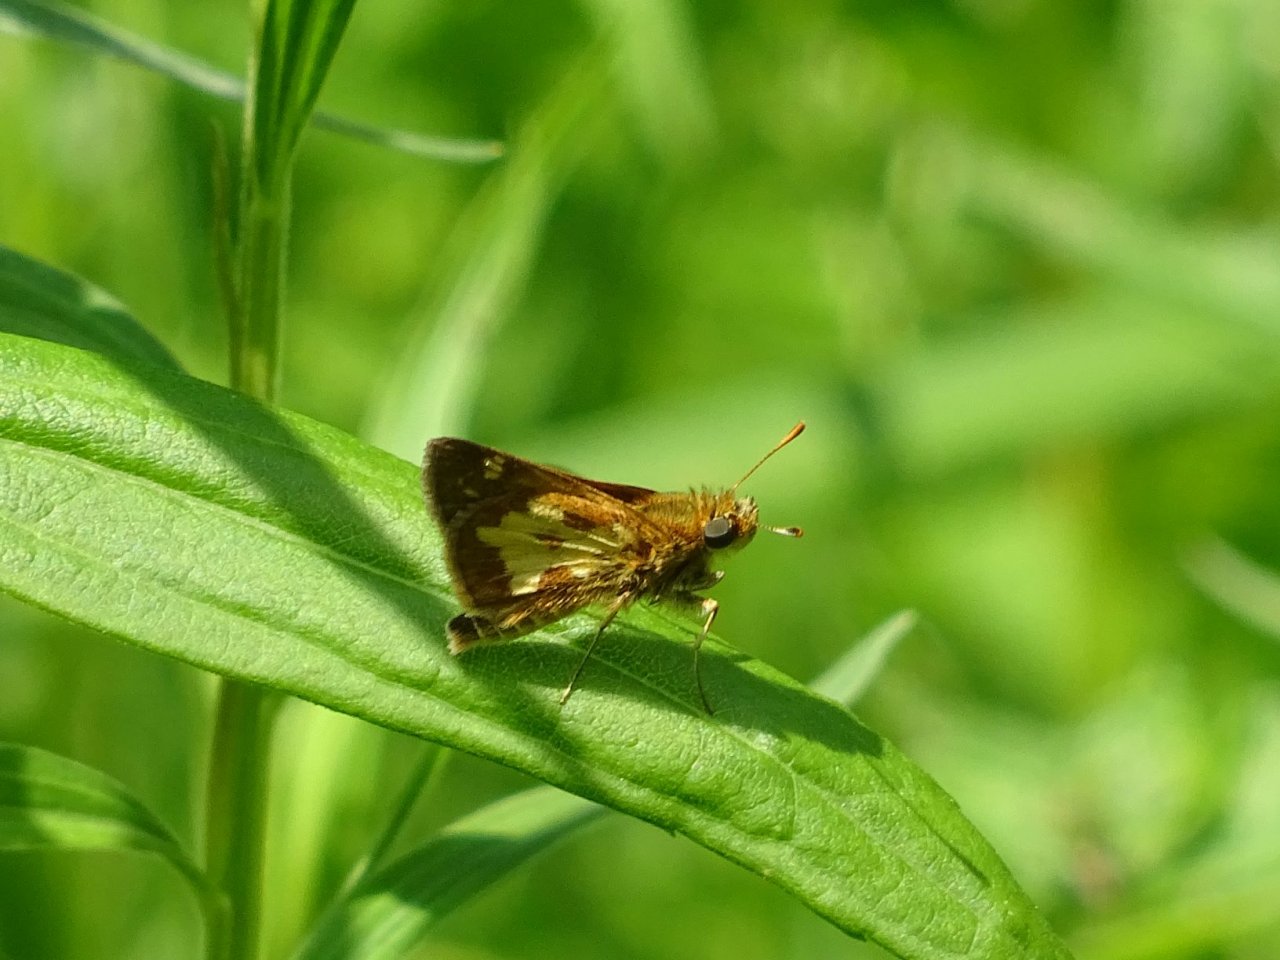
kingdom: Animalia
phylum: Arthropoda
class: Insecta
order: Lepidoptera
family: Hesperiidae
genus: Polites
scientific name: Polites coras
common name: Peck's Skipper
